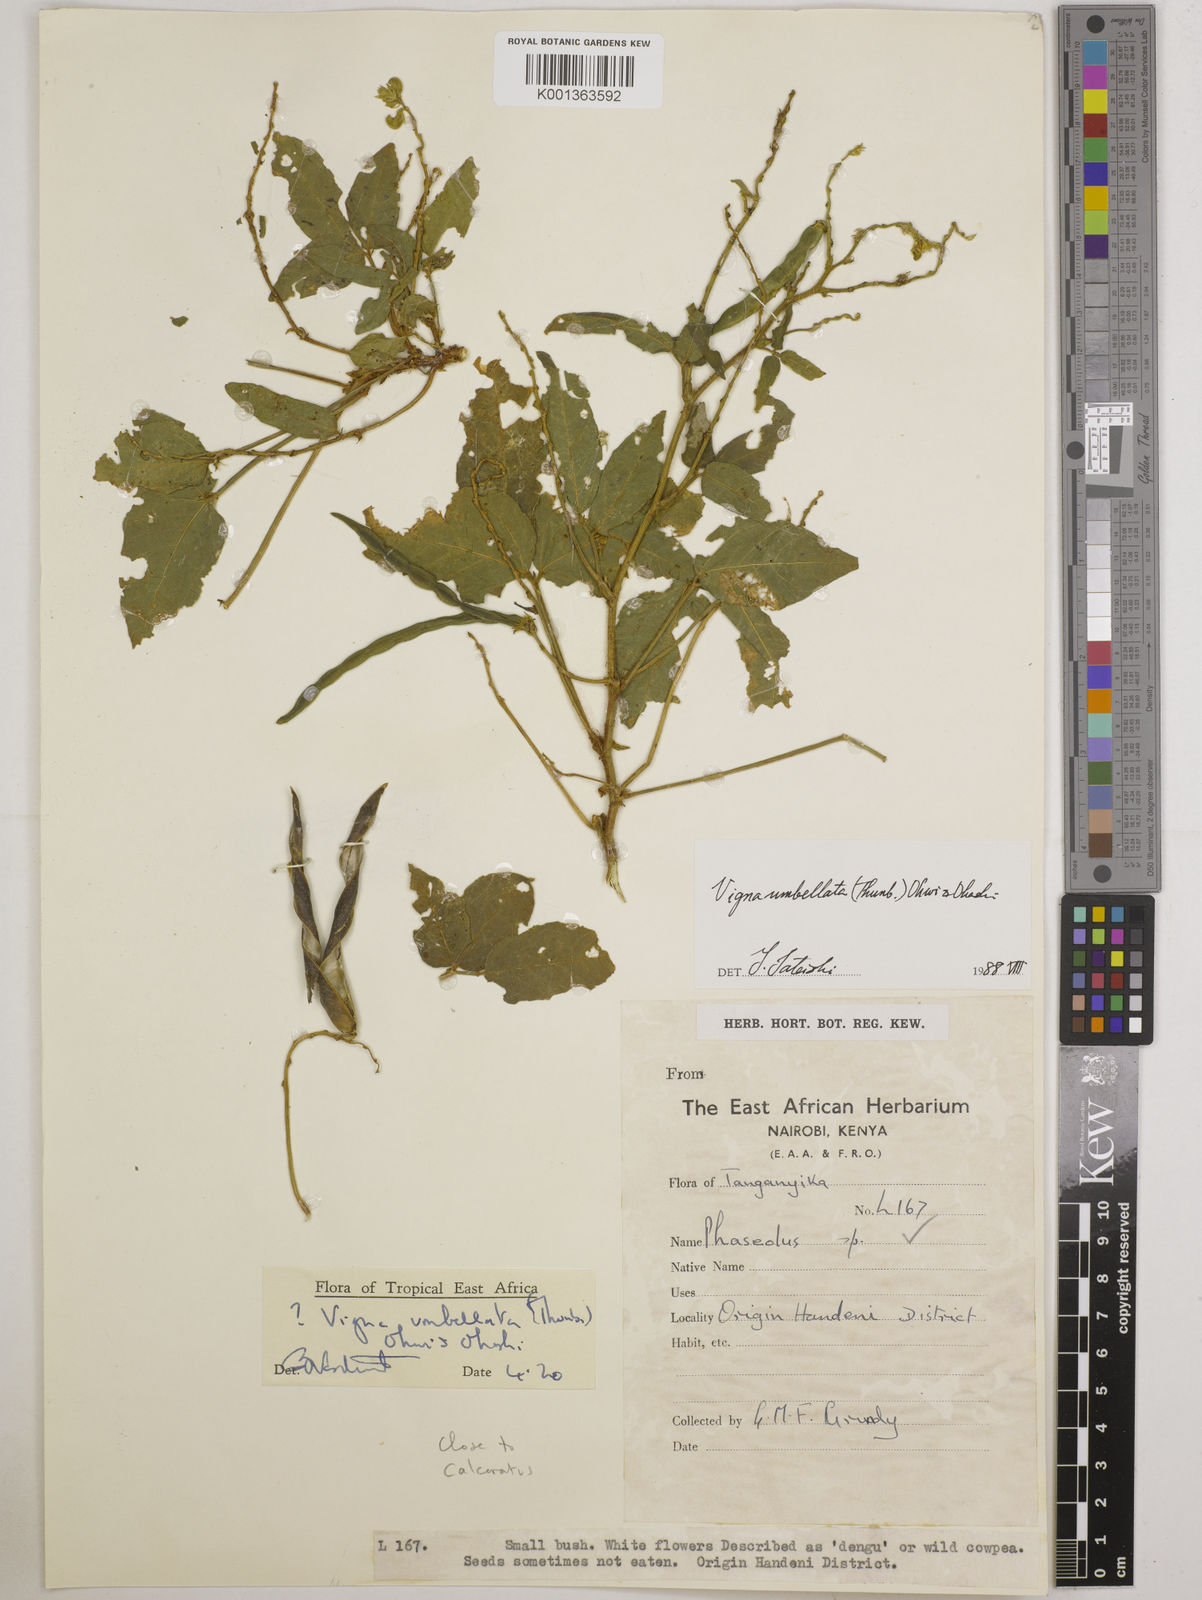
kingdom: Plantae
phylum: Tracheophyta
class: Magnoliopsida
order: Fabales
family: Fabaceae
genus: Vigna
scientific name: Vigna umbellata
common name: Oriental-bean
